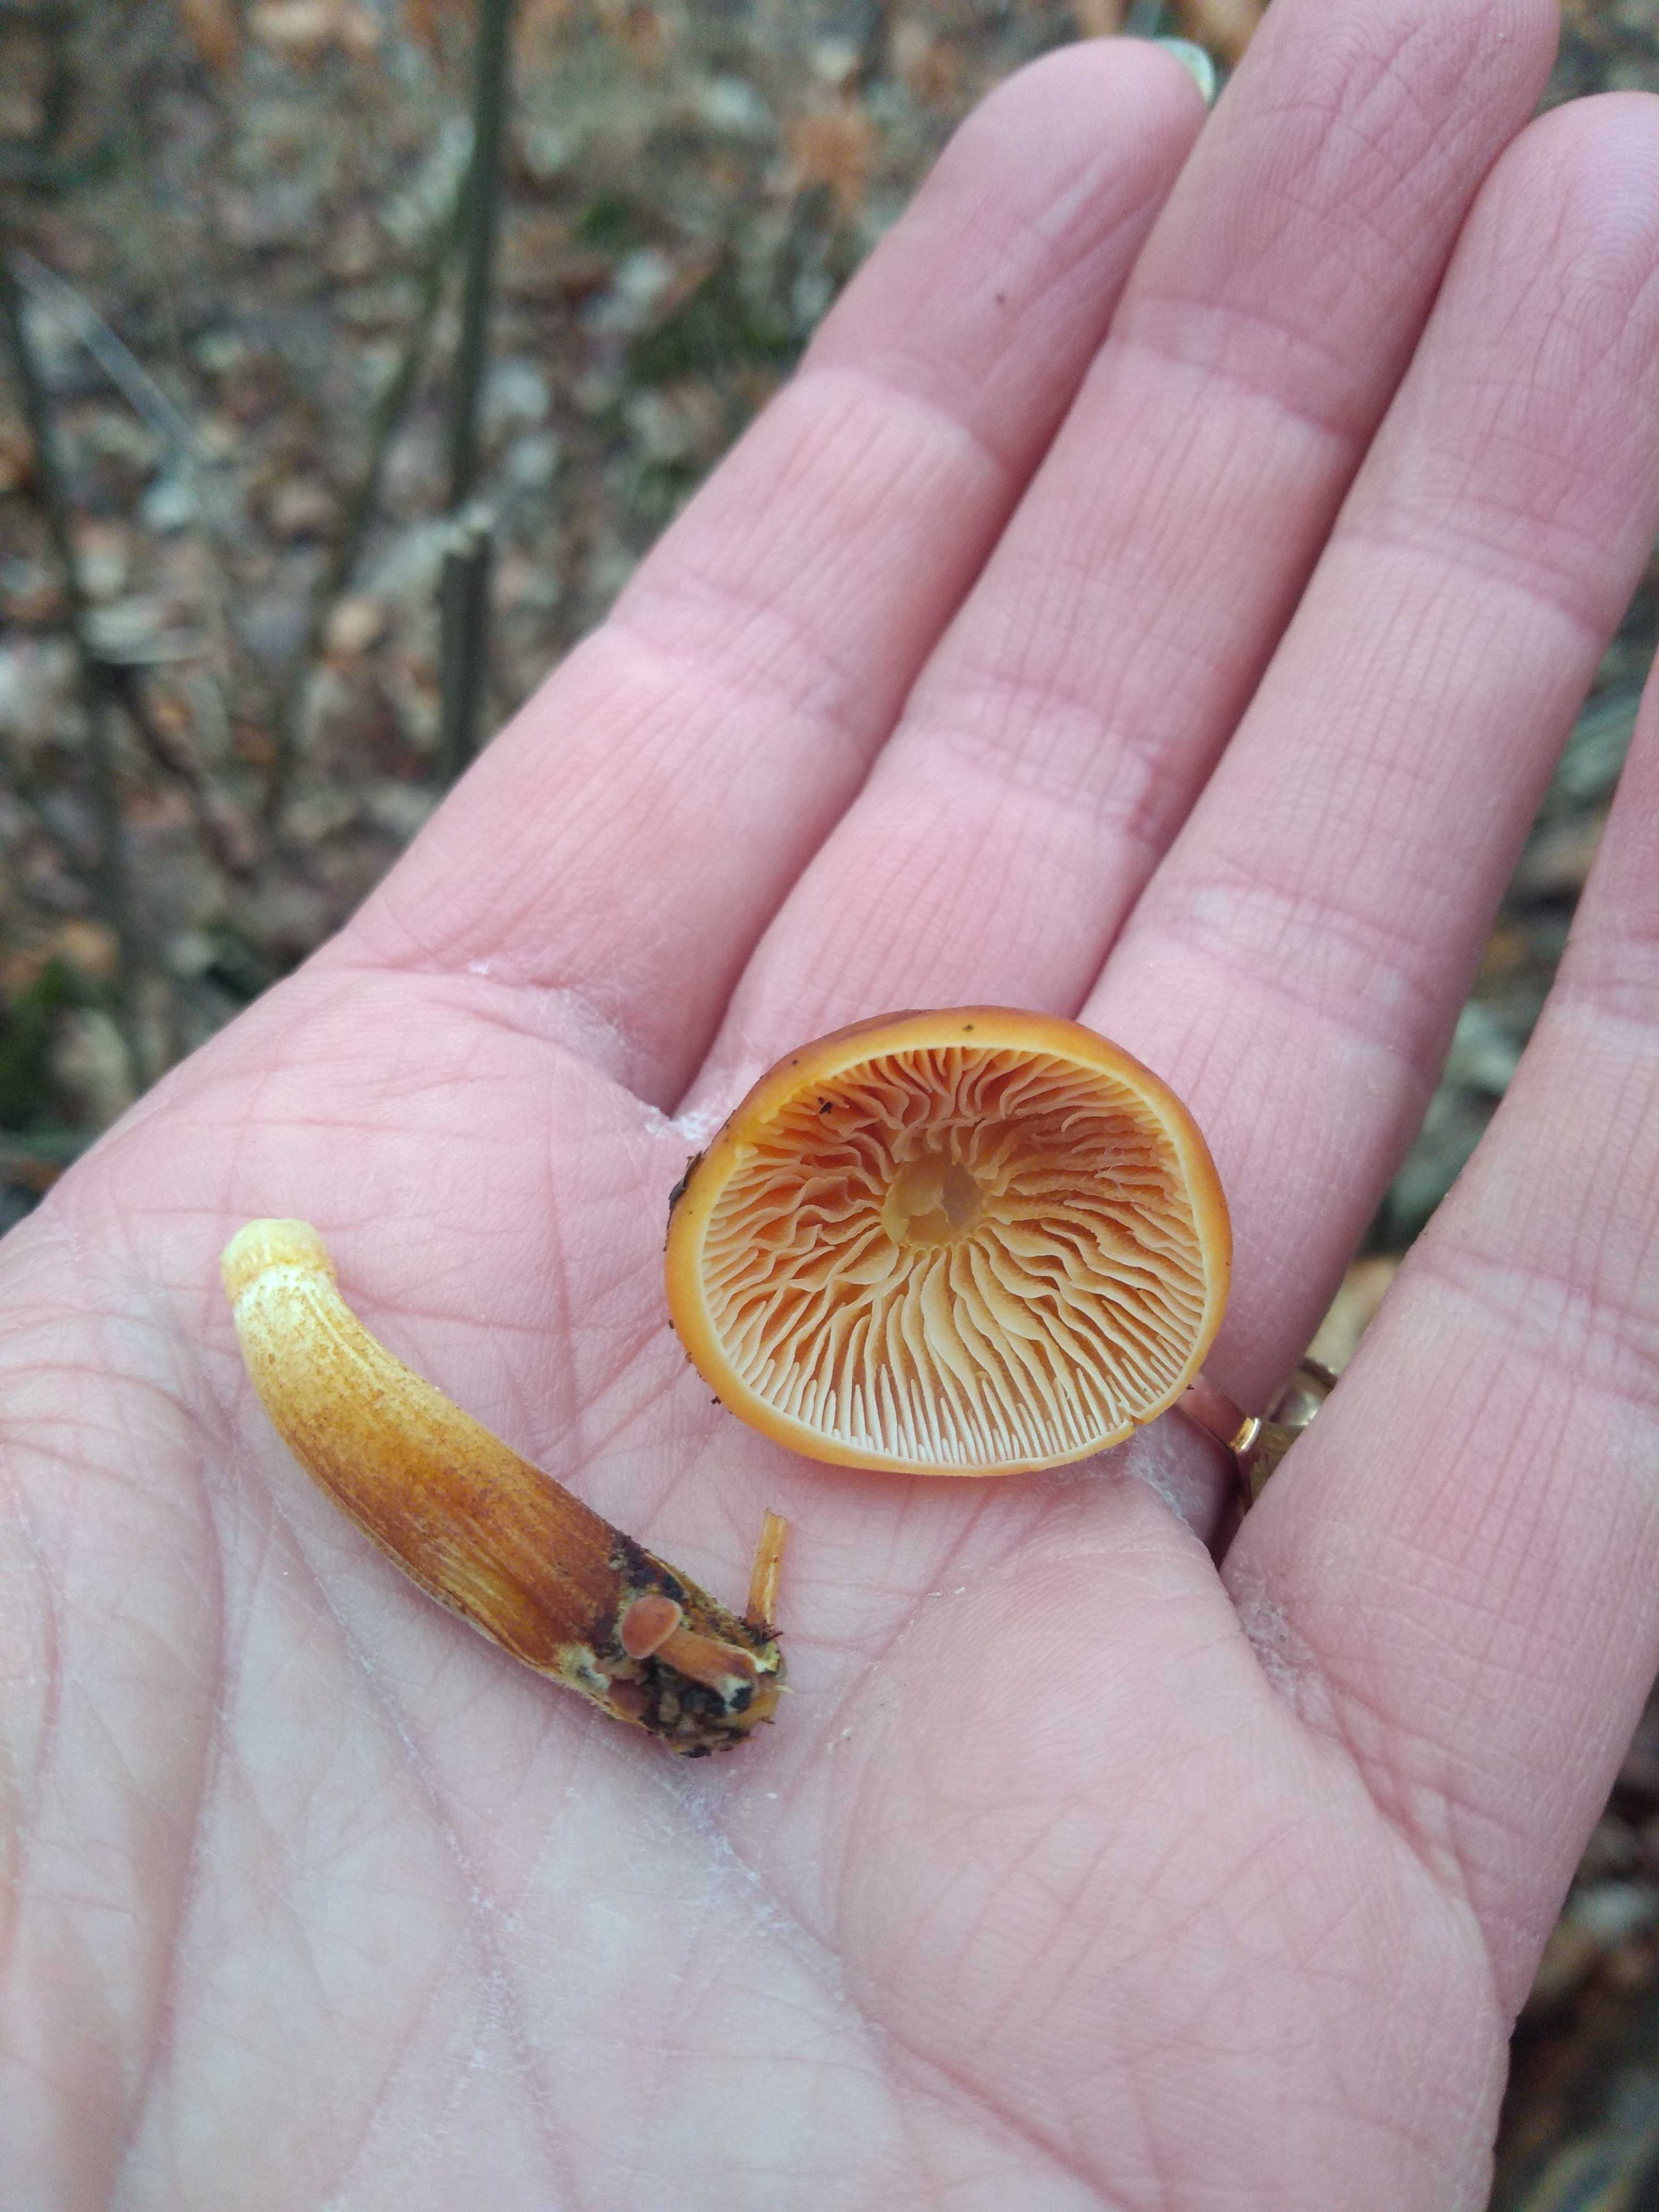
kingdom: Fungi
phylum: Basidiomycota
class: Agaricomycetes
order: Agaricales
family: Physalacriaceae
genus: Flammulina
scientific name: Flammulina
